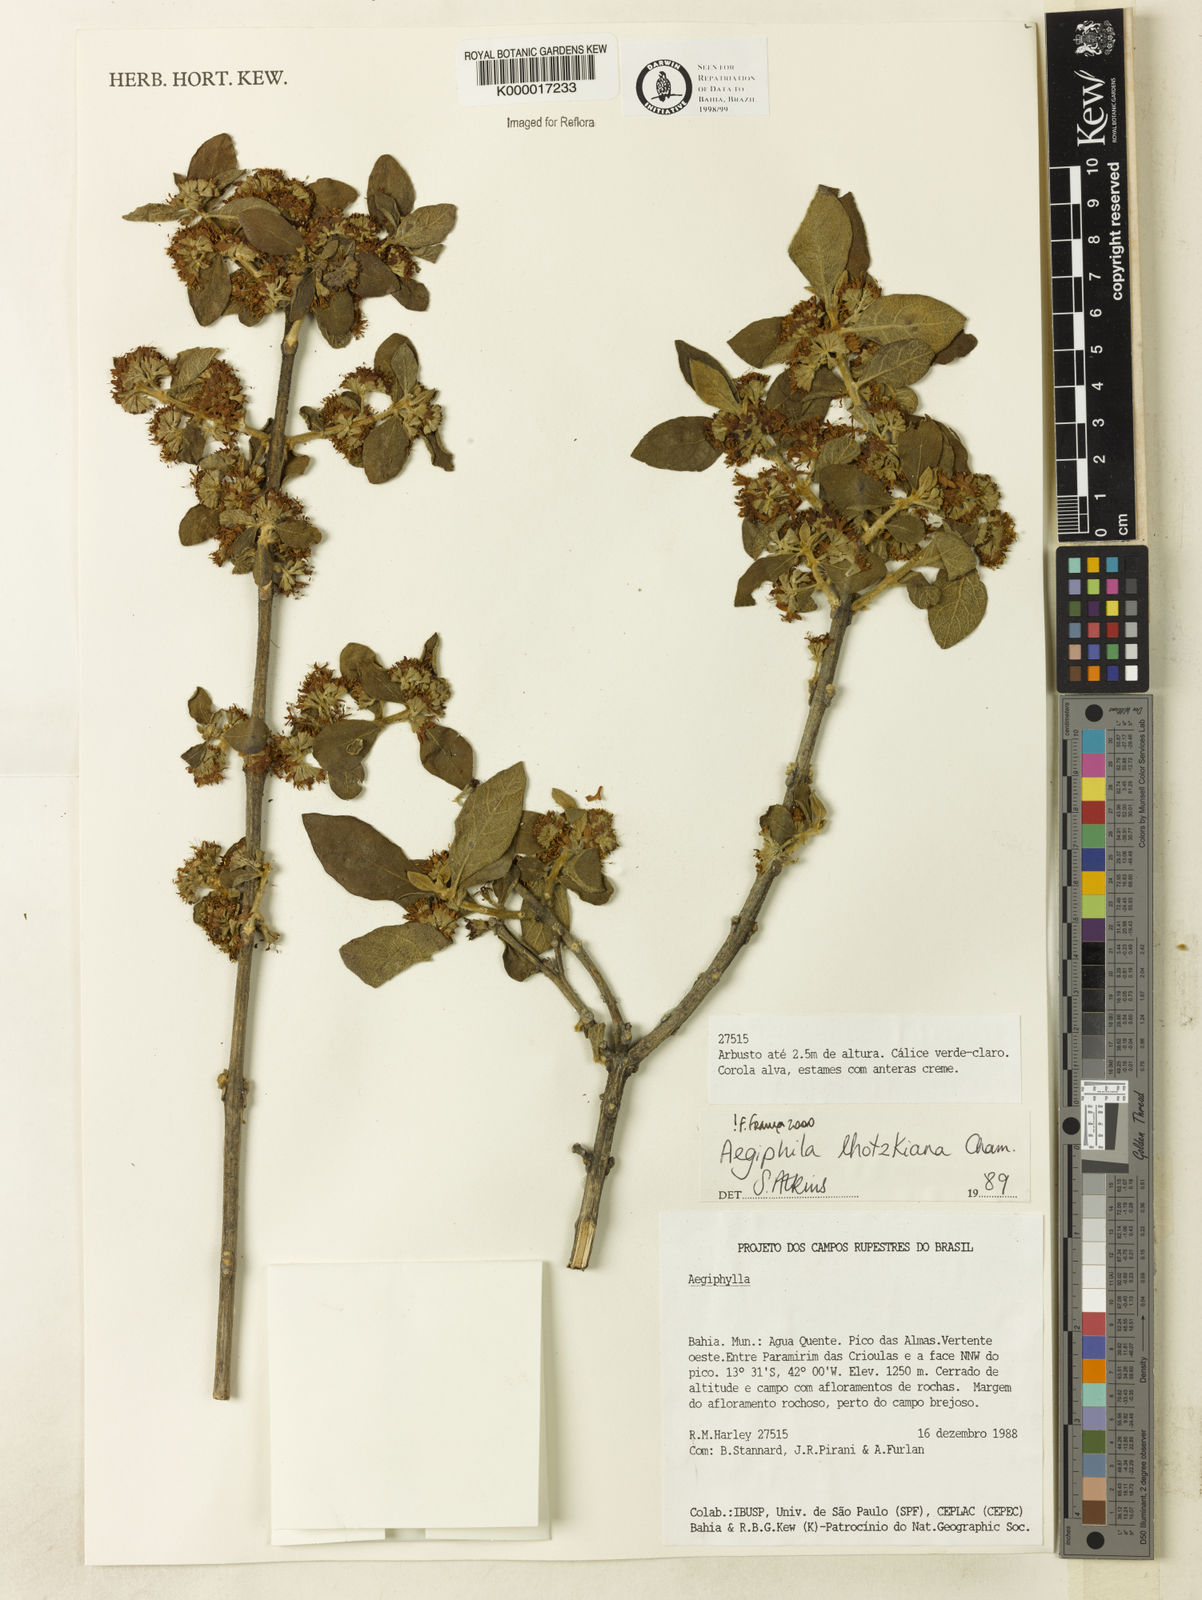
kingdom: Plantae
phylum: Tracheophyta
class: Magnoliopsida
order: Lamiales
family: Lamiaceae
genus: Aegiphila
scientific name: Aegiphila verticillata
